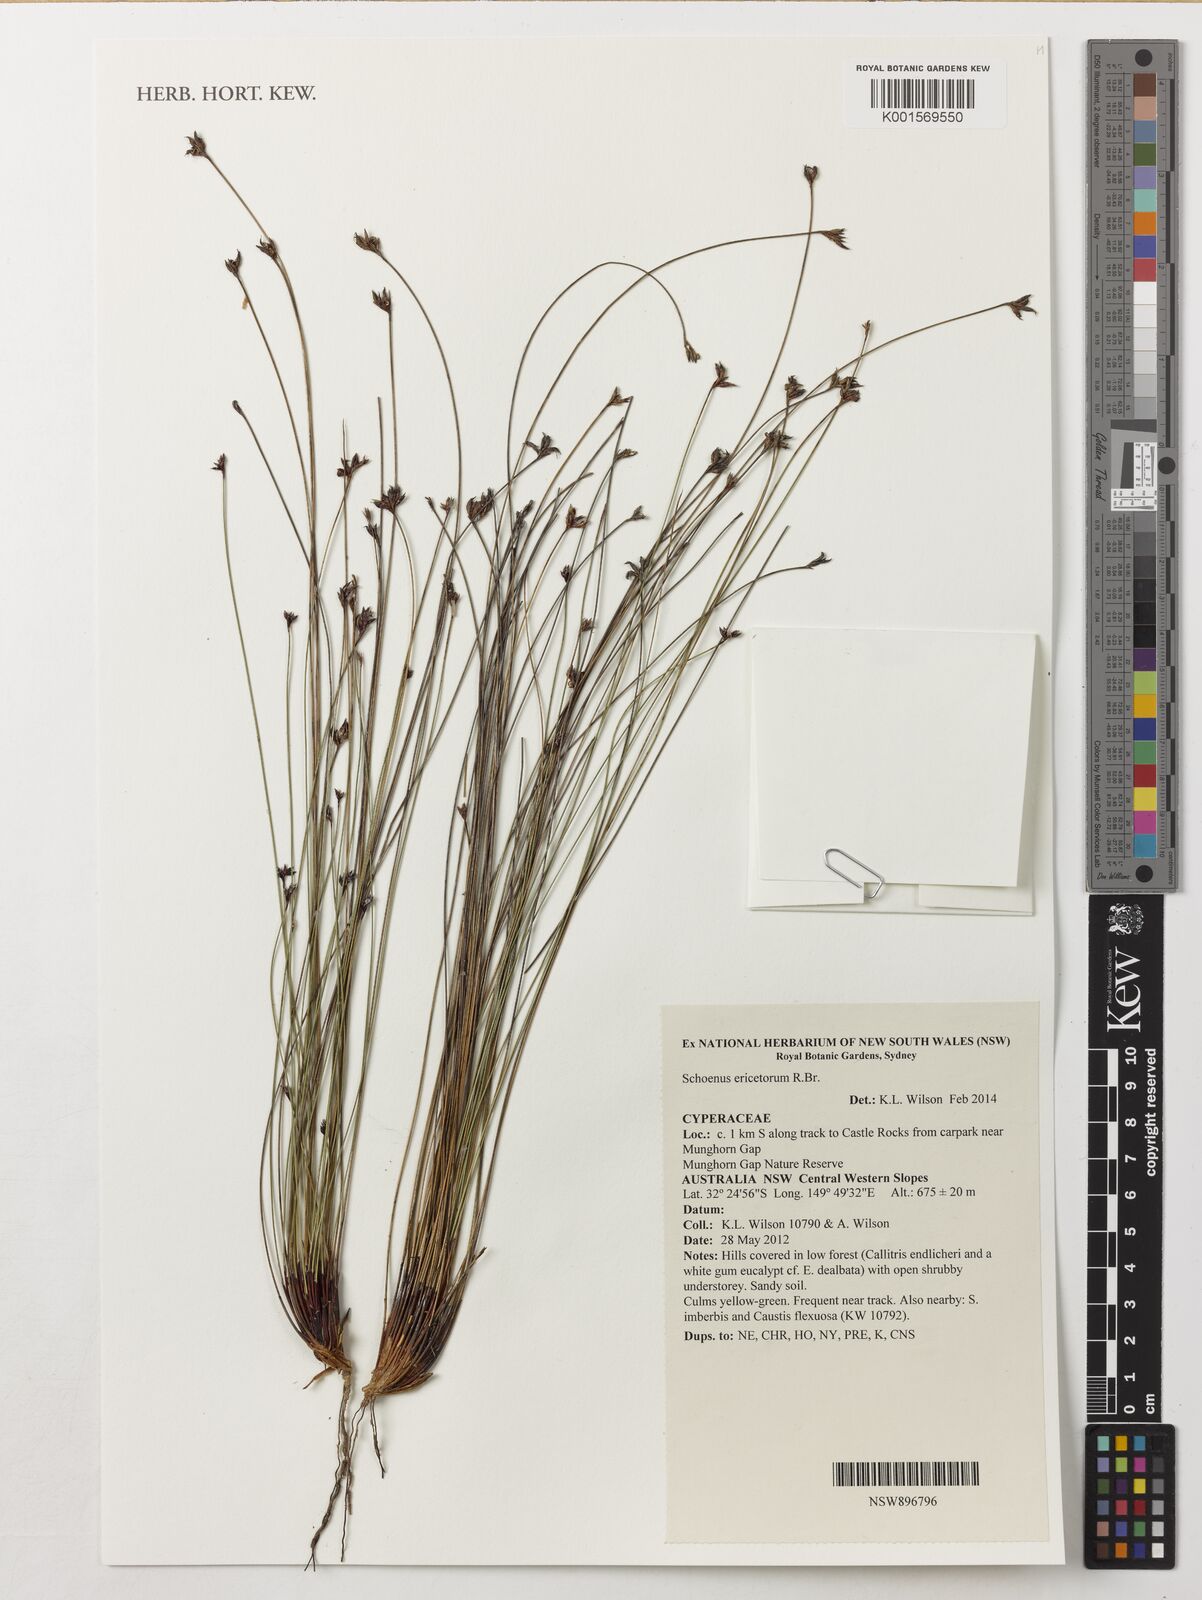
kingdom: Plantae
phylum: Tracheophyta
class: Liliopsida
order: Poales
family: Cyperaceae
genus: Schoenus
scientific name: Schoenus ericetorum
